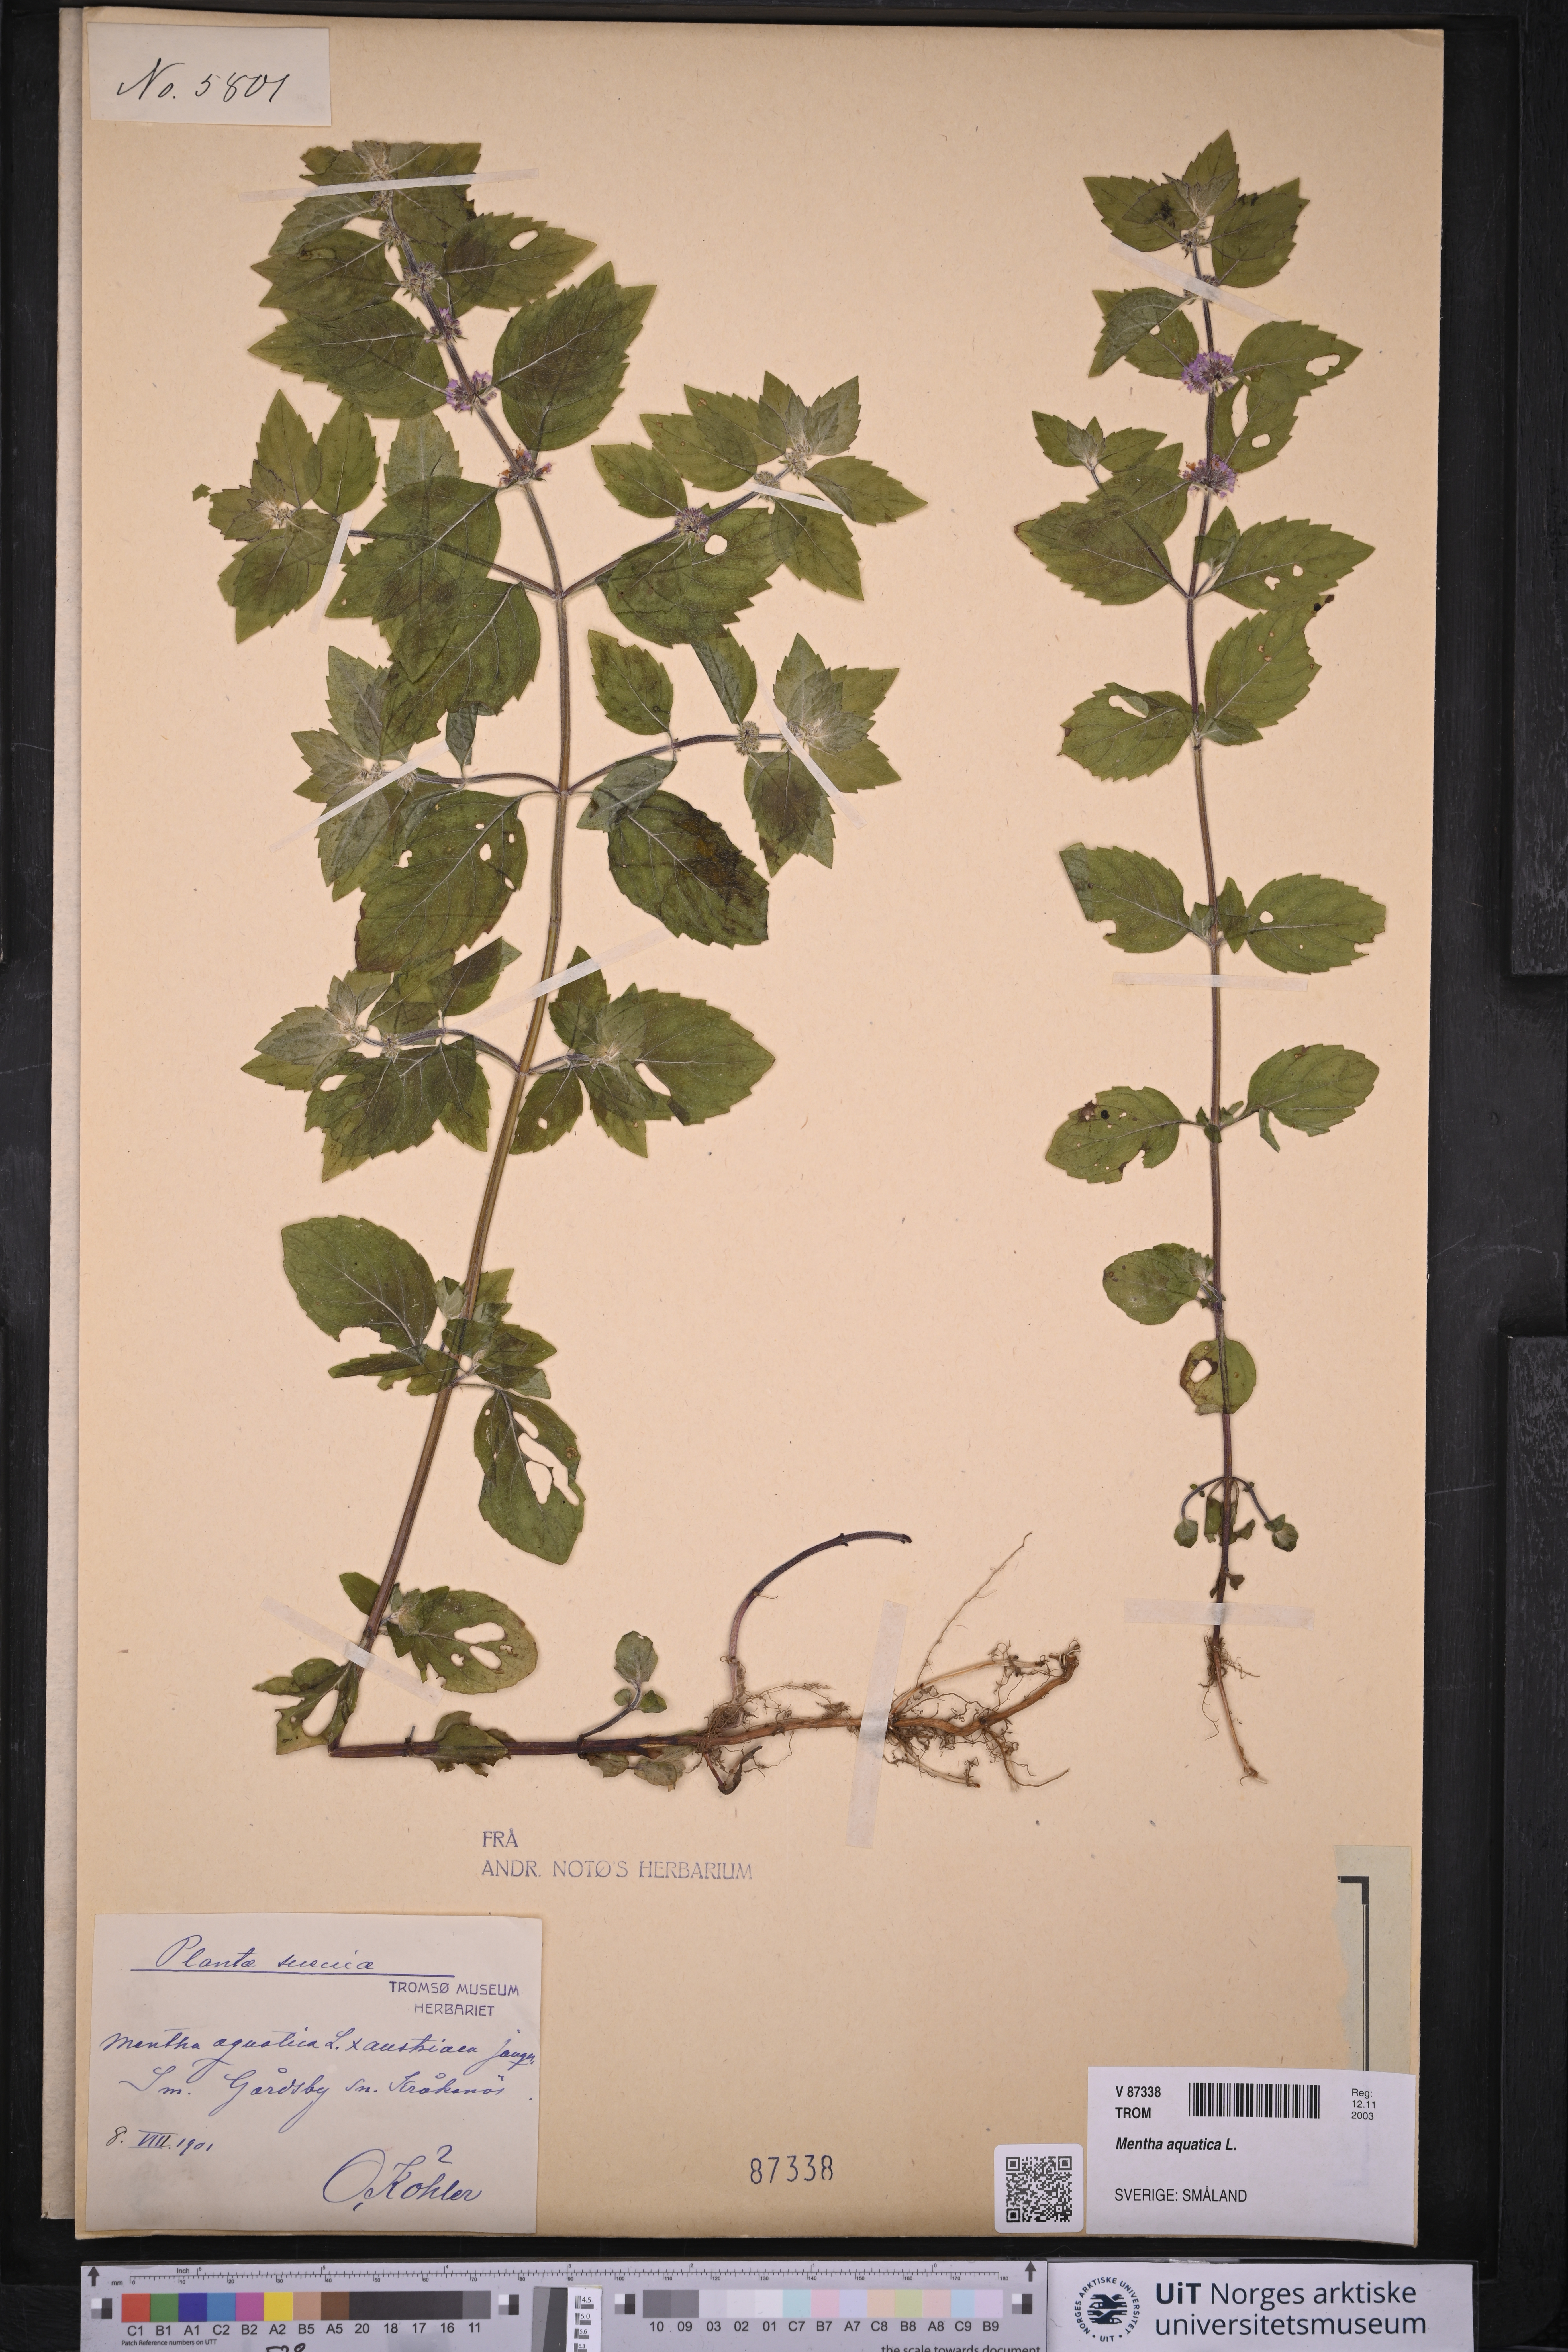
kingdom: Plantae
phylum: Tracheophyta
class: Magnoliopsida
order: Lamiales
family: Lamiaceae
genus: Mentha
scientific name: Mentha aquatica
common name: Water mint
